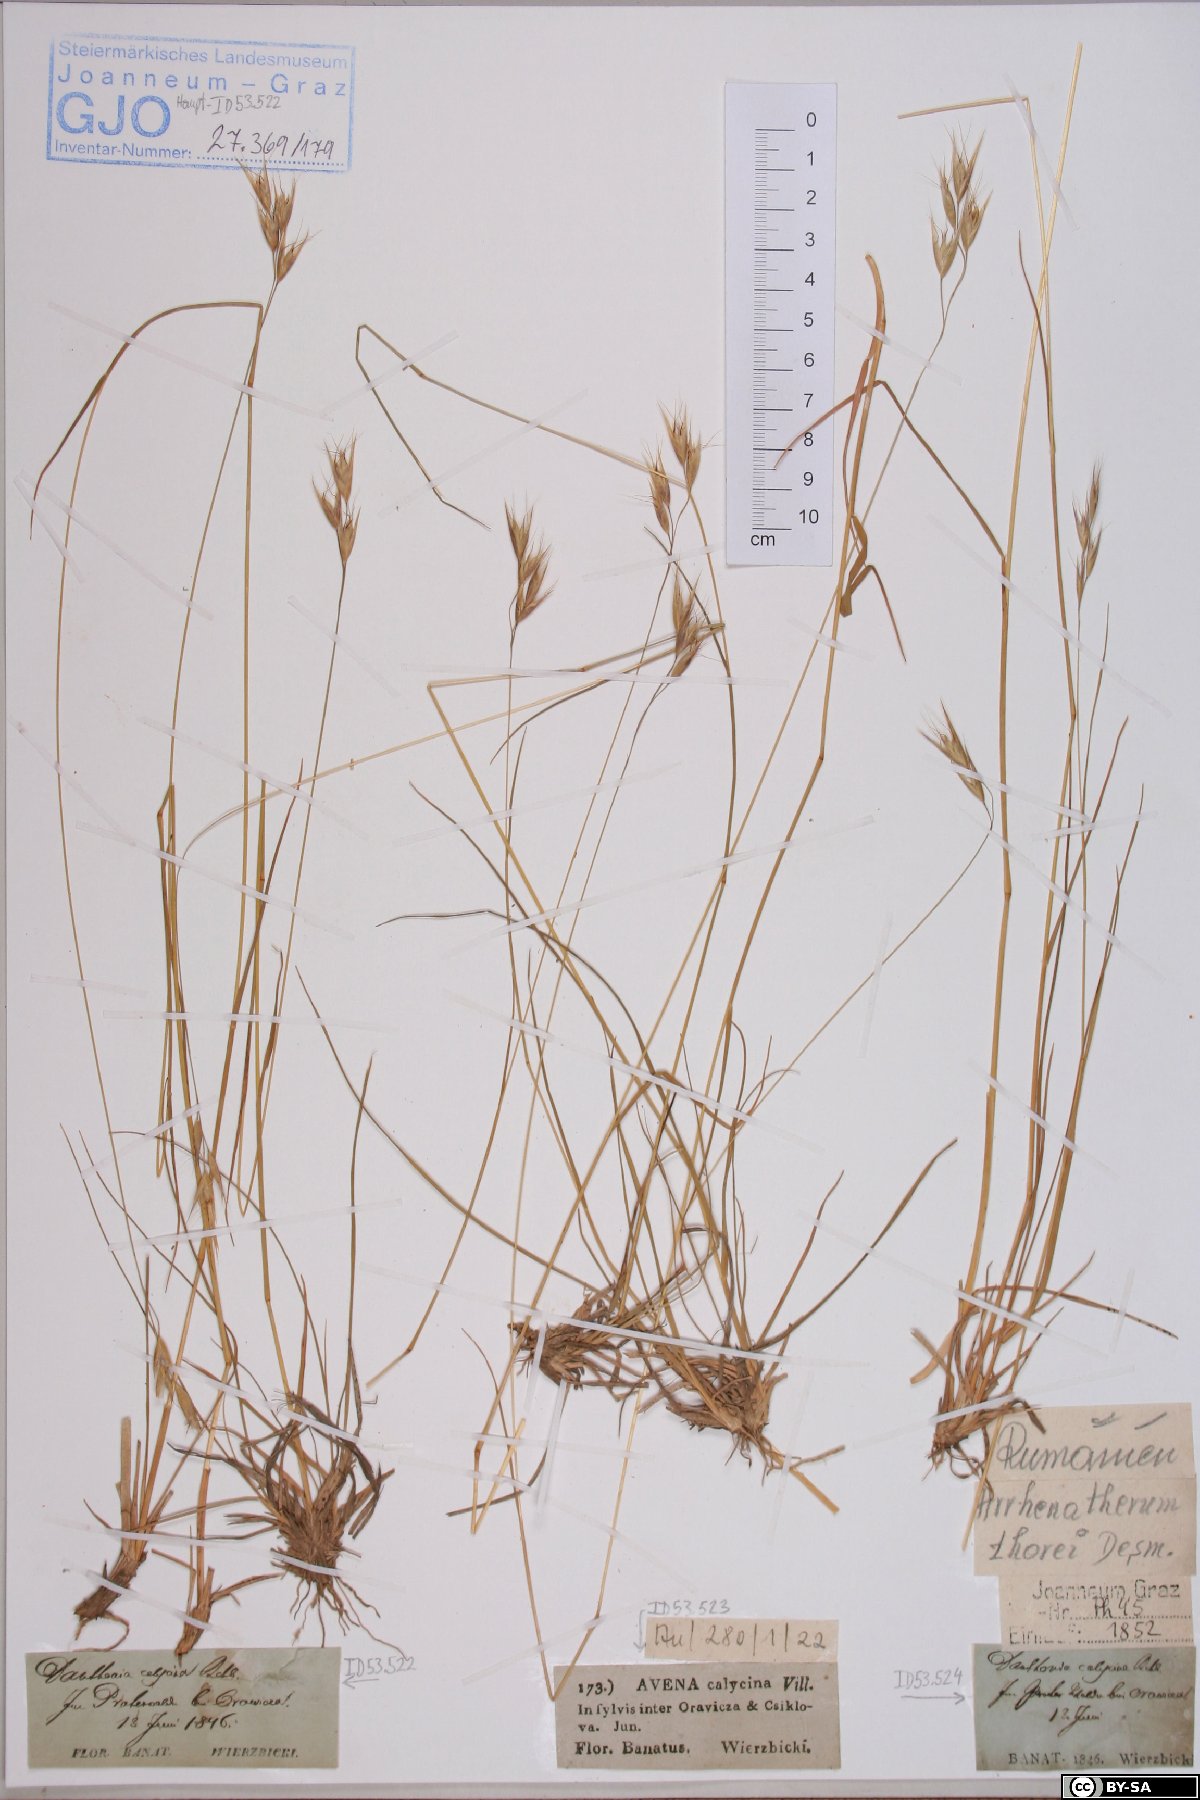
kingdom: Plantae
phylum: Tracheophyta
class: Liliopsida
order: Poales
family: Poaceae
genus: Danthonia
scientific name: Danthonia alpina
